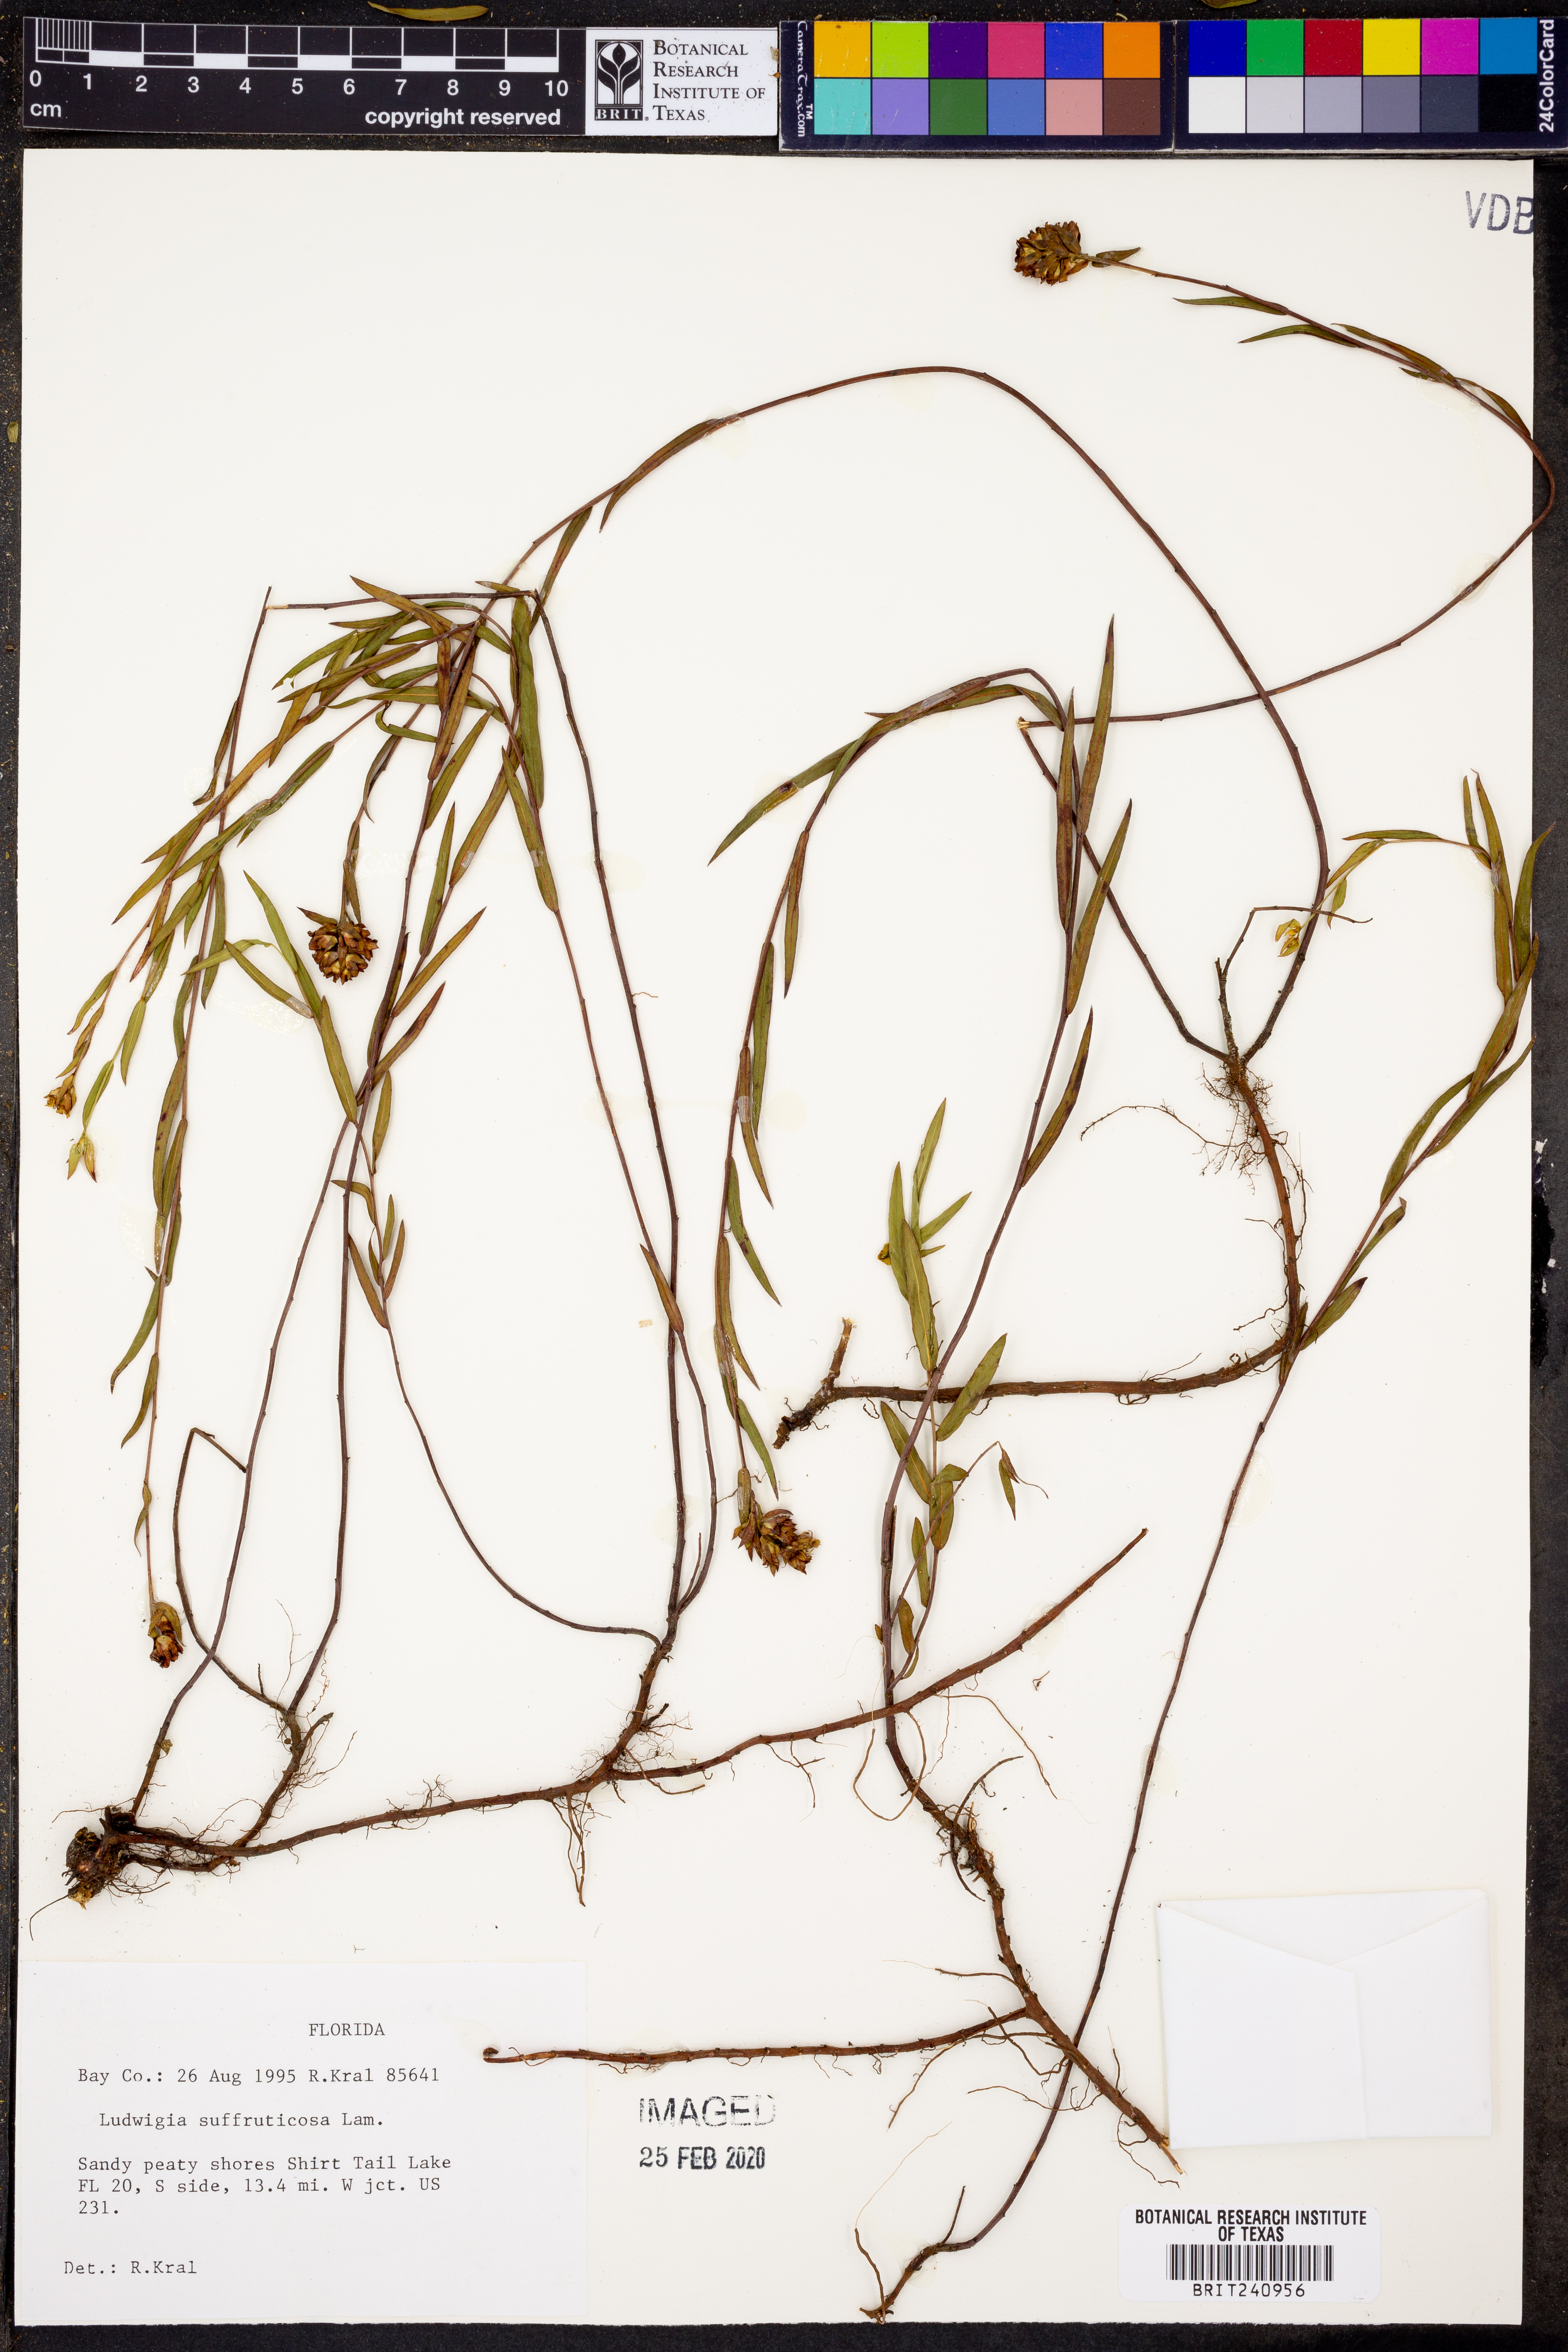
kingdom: Plantae
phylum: Tracheophyta
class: Magnoliopsida
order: Myrtales
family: Onagraceae
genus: Ludwigia
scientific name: Ludwigia suffruticosa
